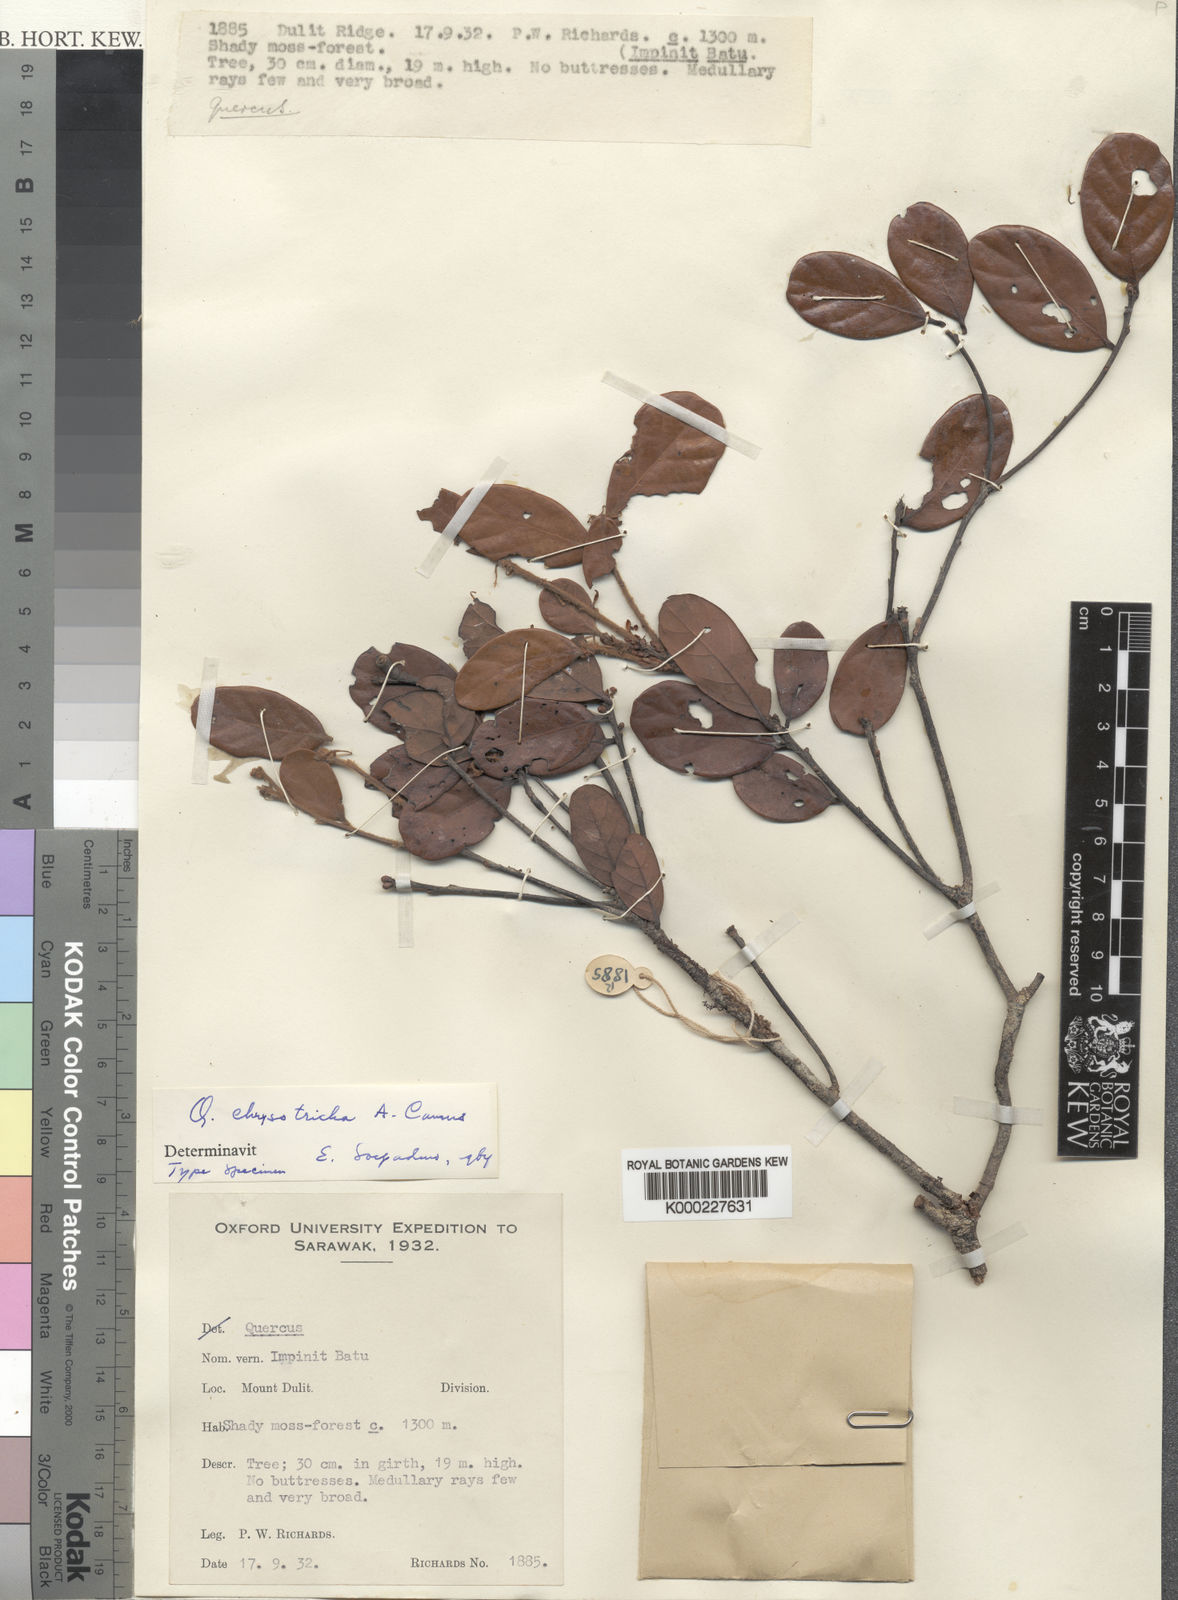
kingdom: Plantae
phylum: Tracheophyta
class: Magnoliopsida
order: Fagales
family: Fagaceae
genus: Quercus
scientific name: Quercus chrysotricha
